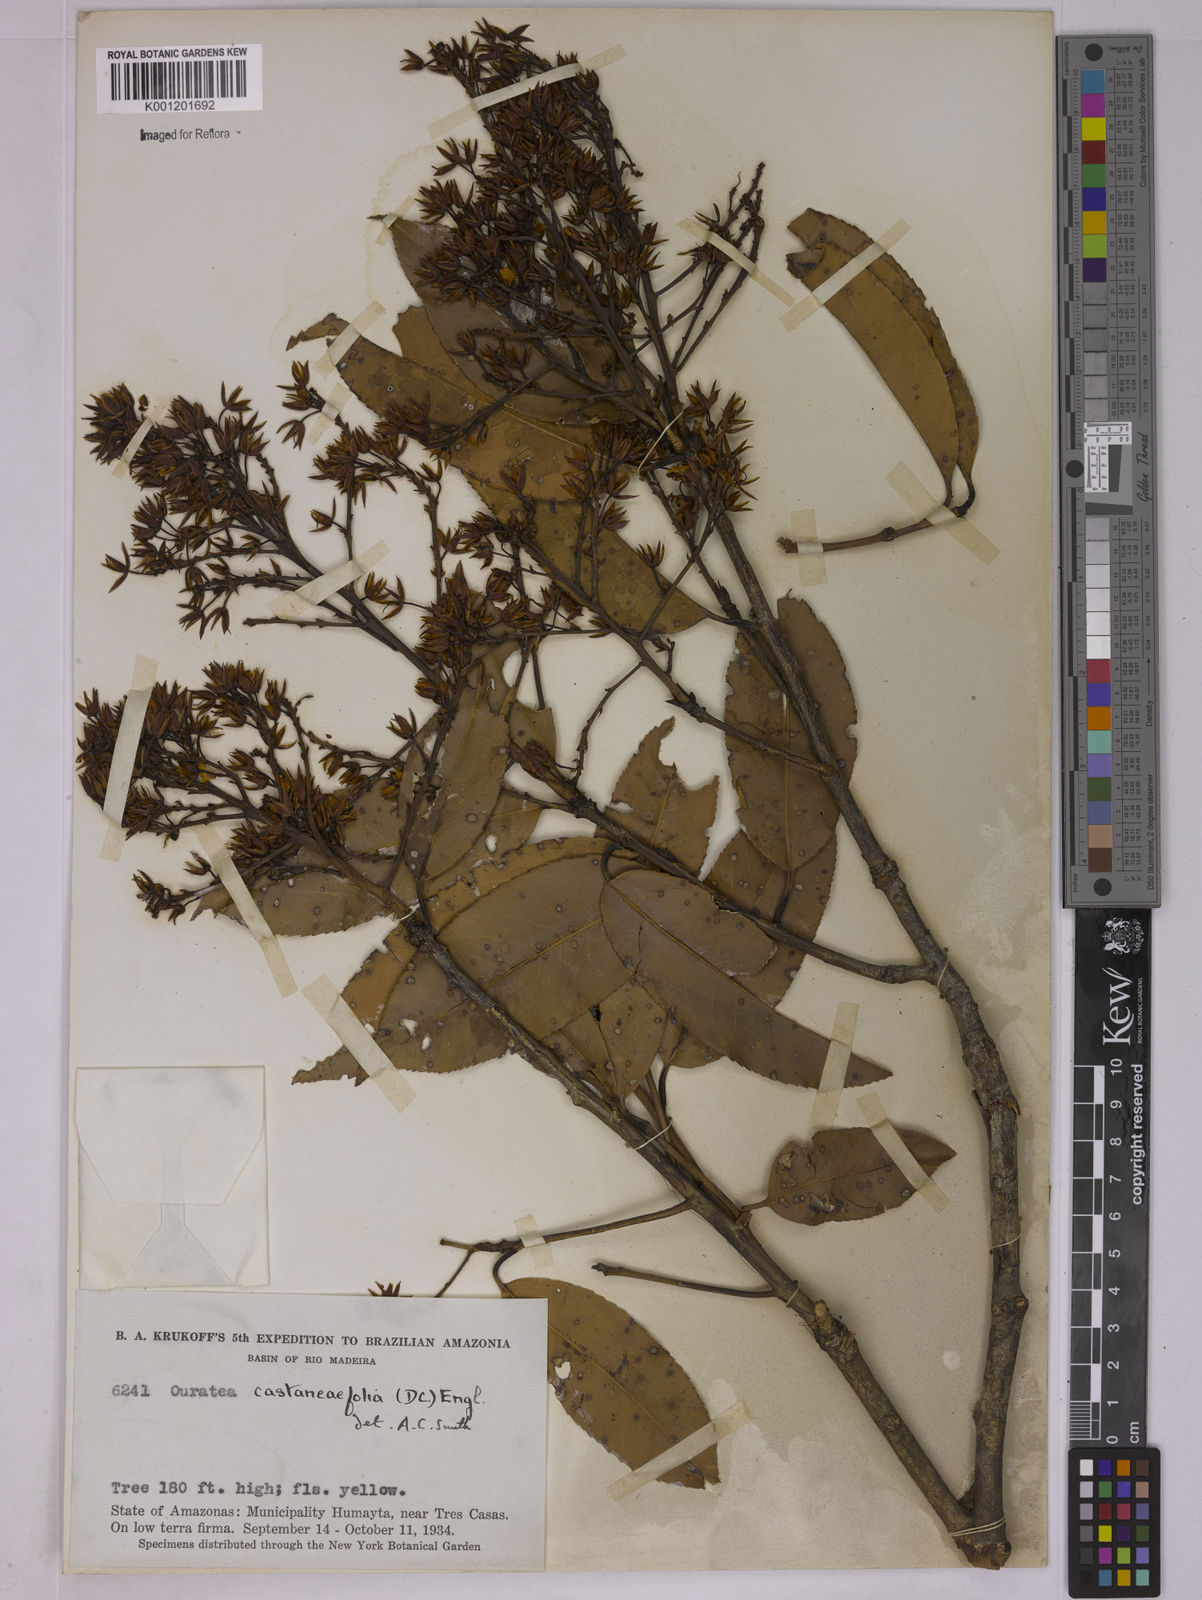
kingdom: Plantae
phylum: Tracheophyta
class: Magnoliopsida
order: Malpighiales
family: Ochnaceae
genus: Ouratea
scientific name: Ouratea castaneifolia
